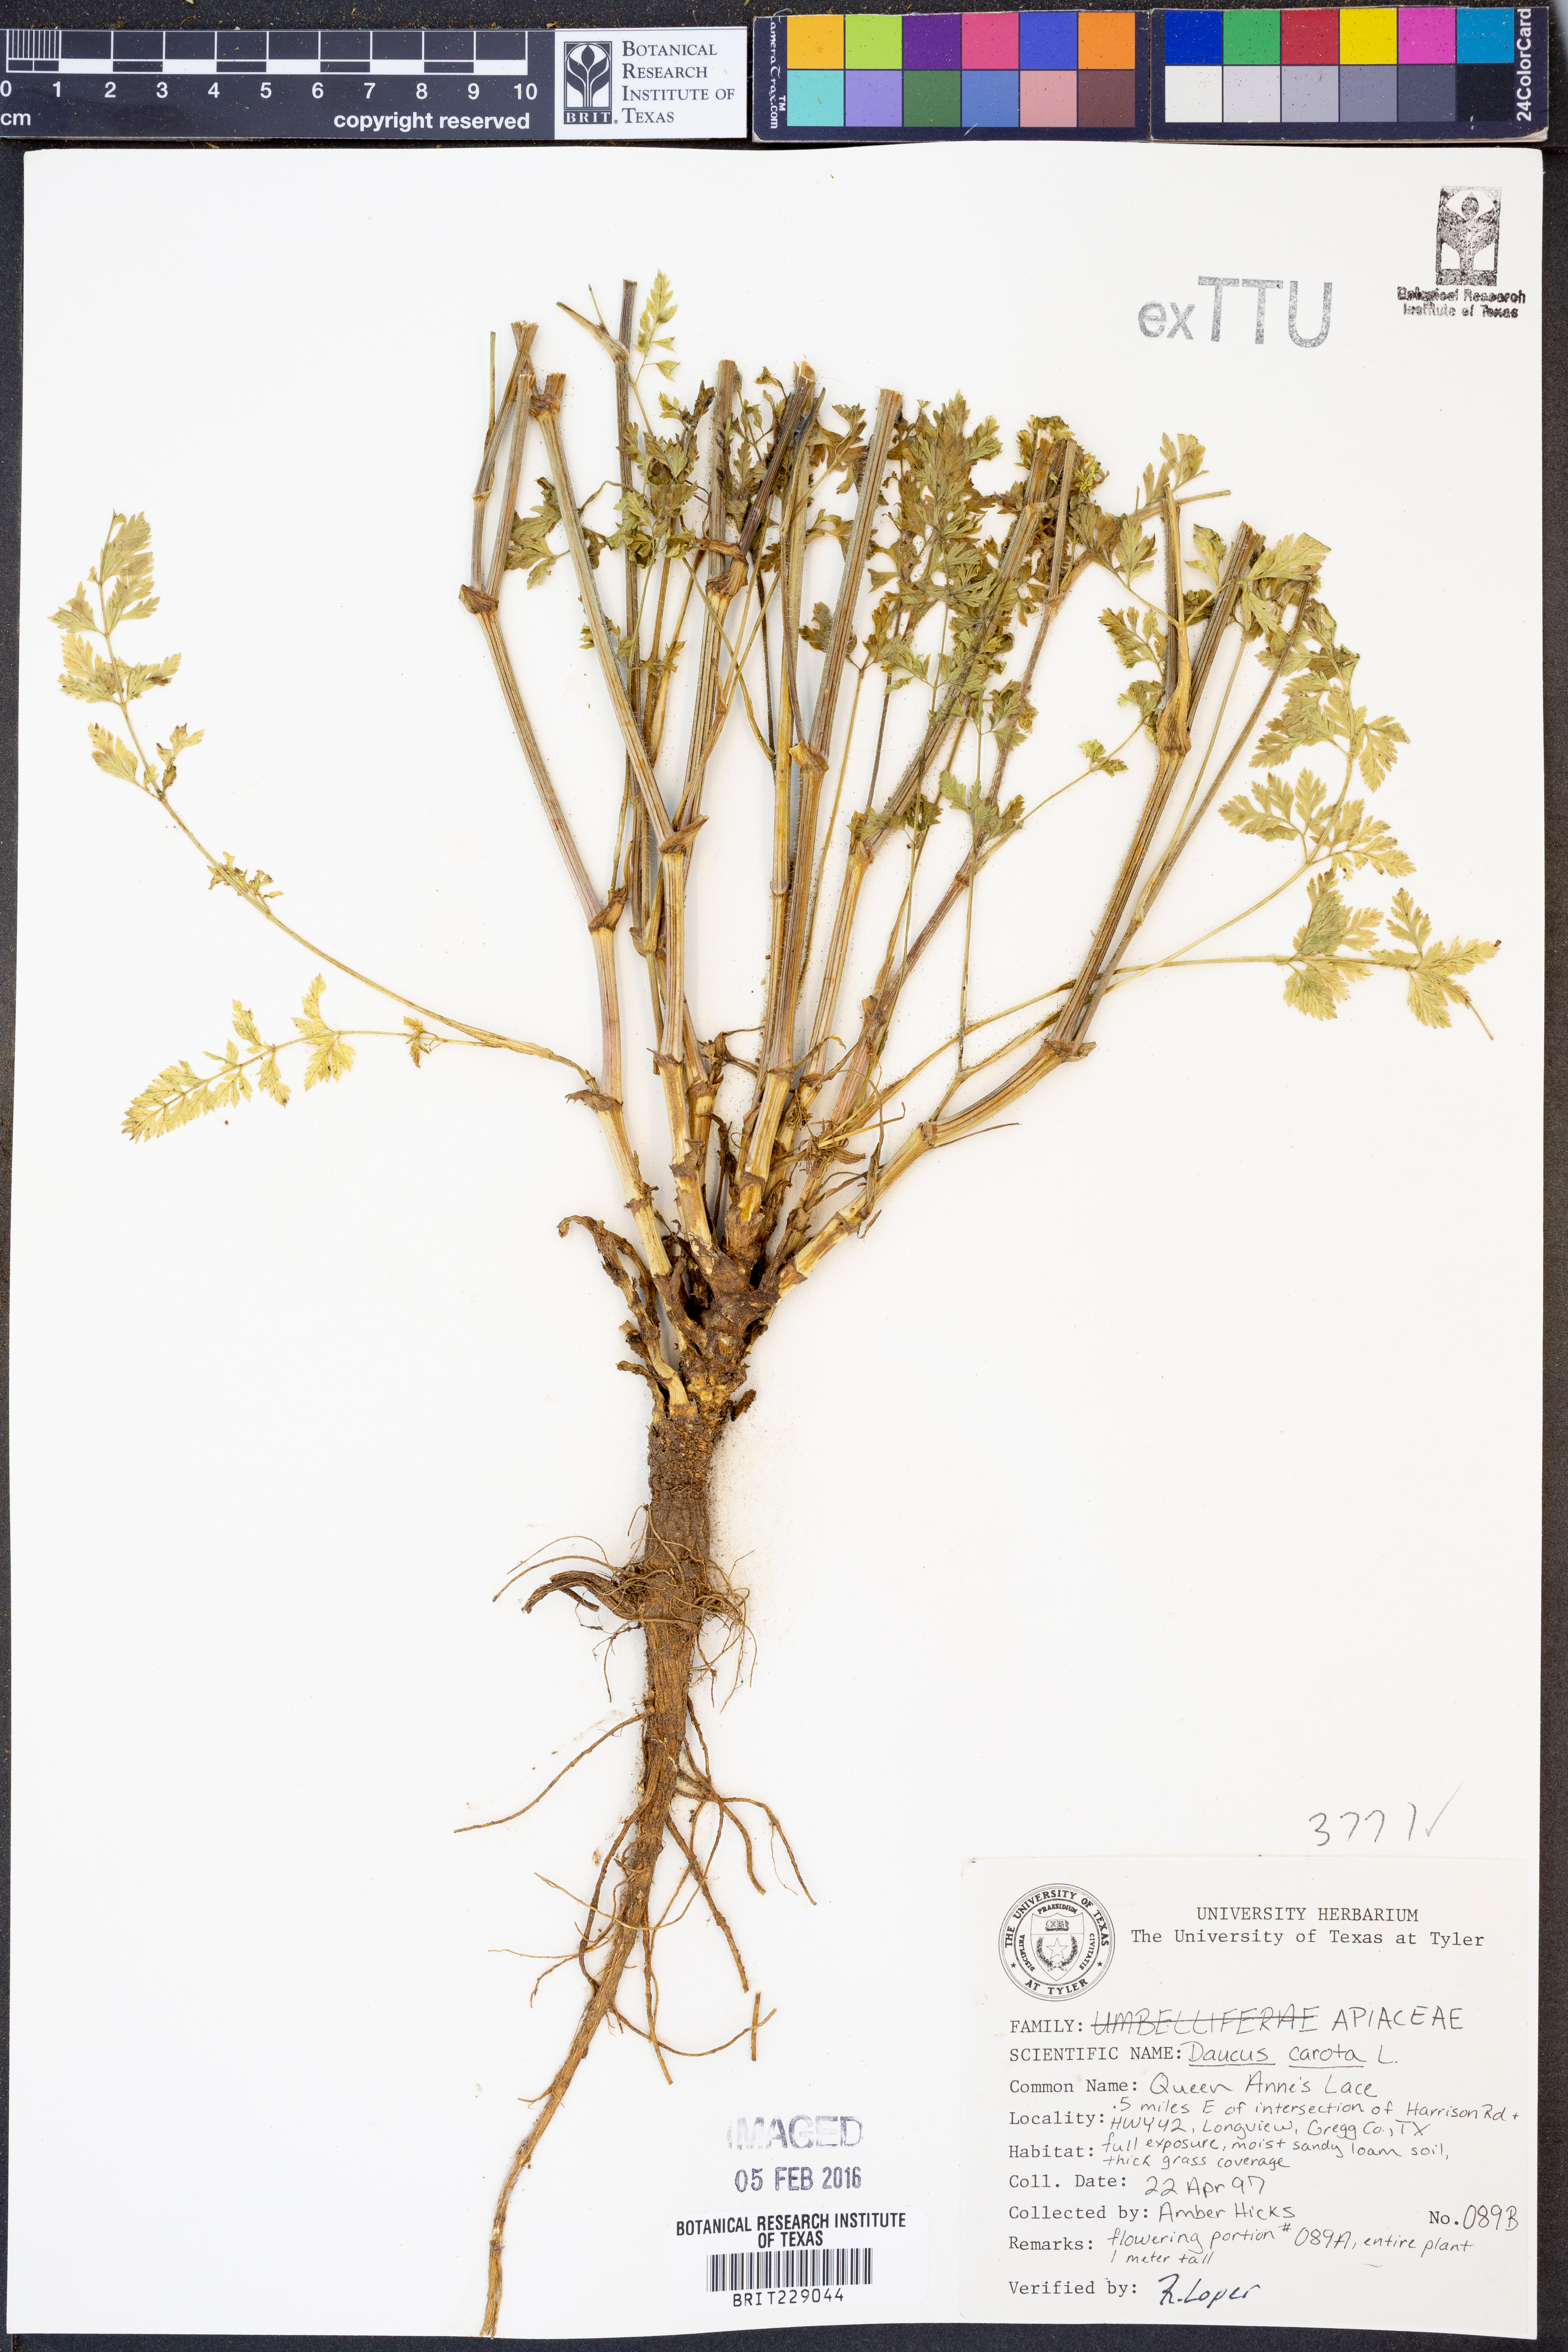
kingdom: Plantae
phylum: Tracheophyta
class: Magnoliopsida
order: Apiales
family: Apiaceae
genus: Daucus
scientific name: Daucus carota
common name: Wild carrot
